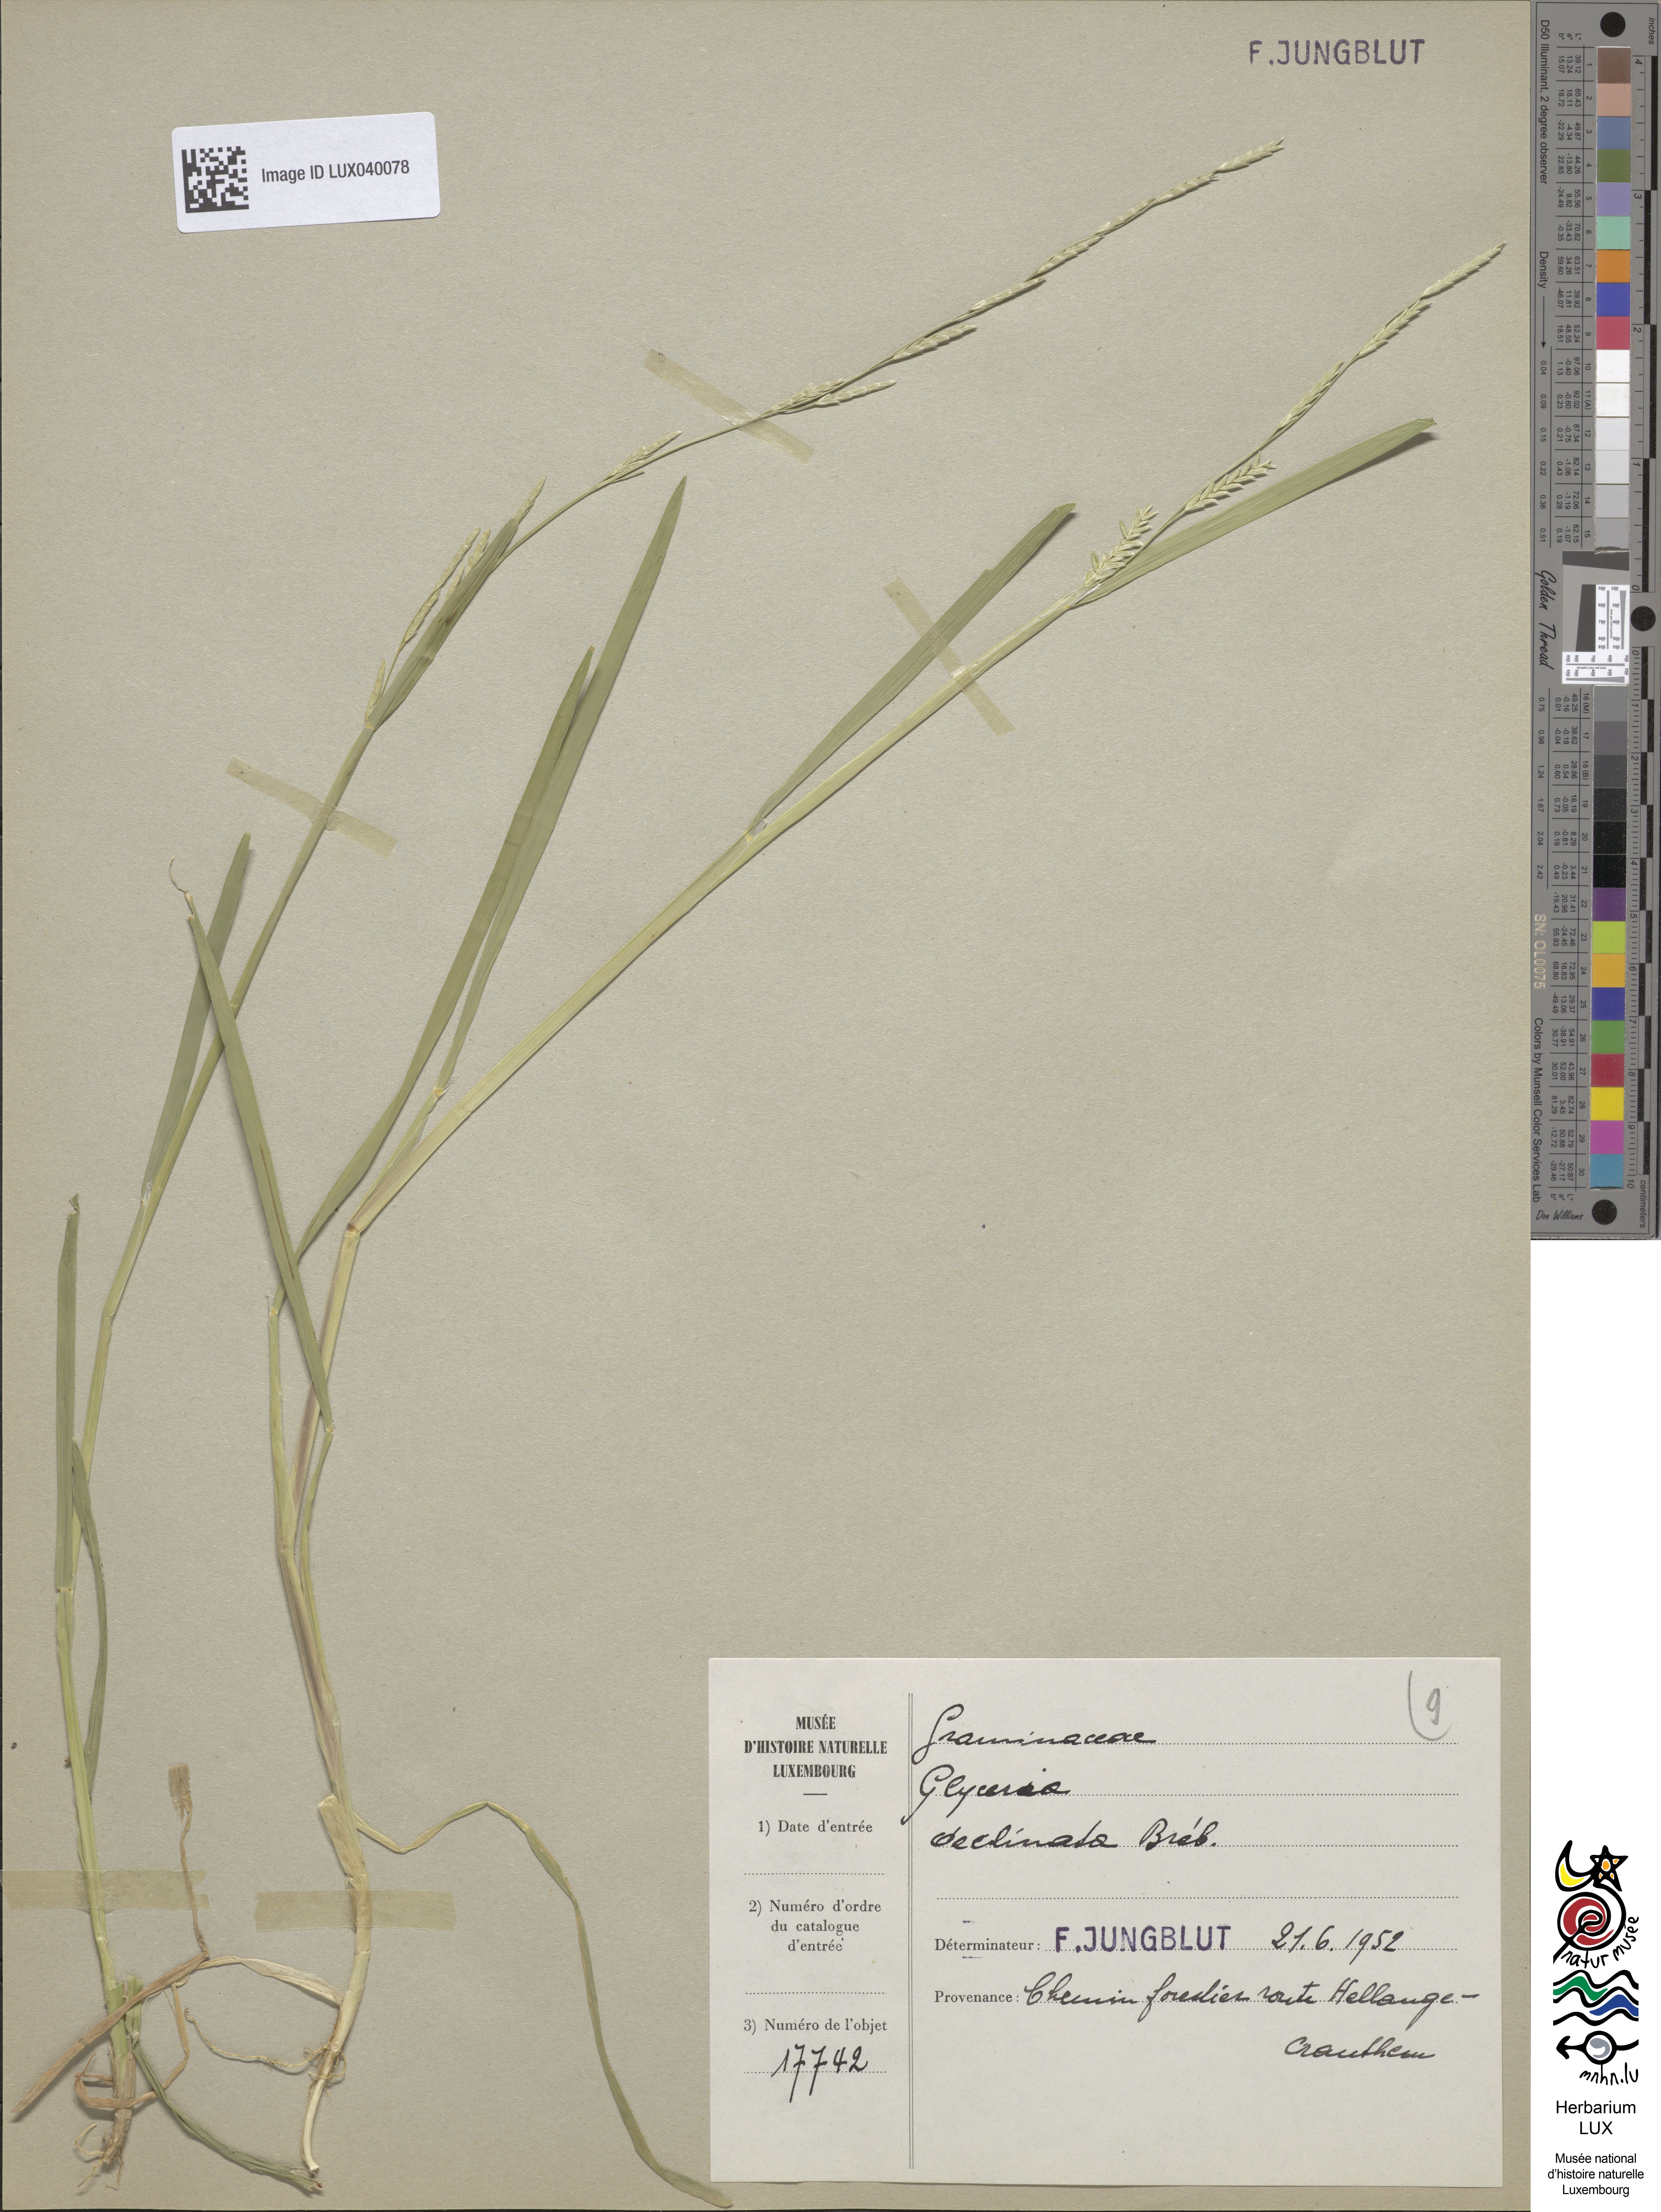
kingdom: Plantae
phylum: Tracheophyta
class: Liliopsida
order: Poales
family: Poaceae
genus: Glyceria
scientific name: Glyceria declinata
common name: Small sweet-grass
